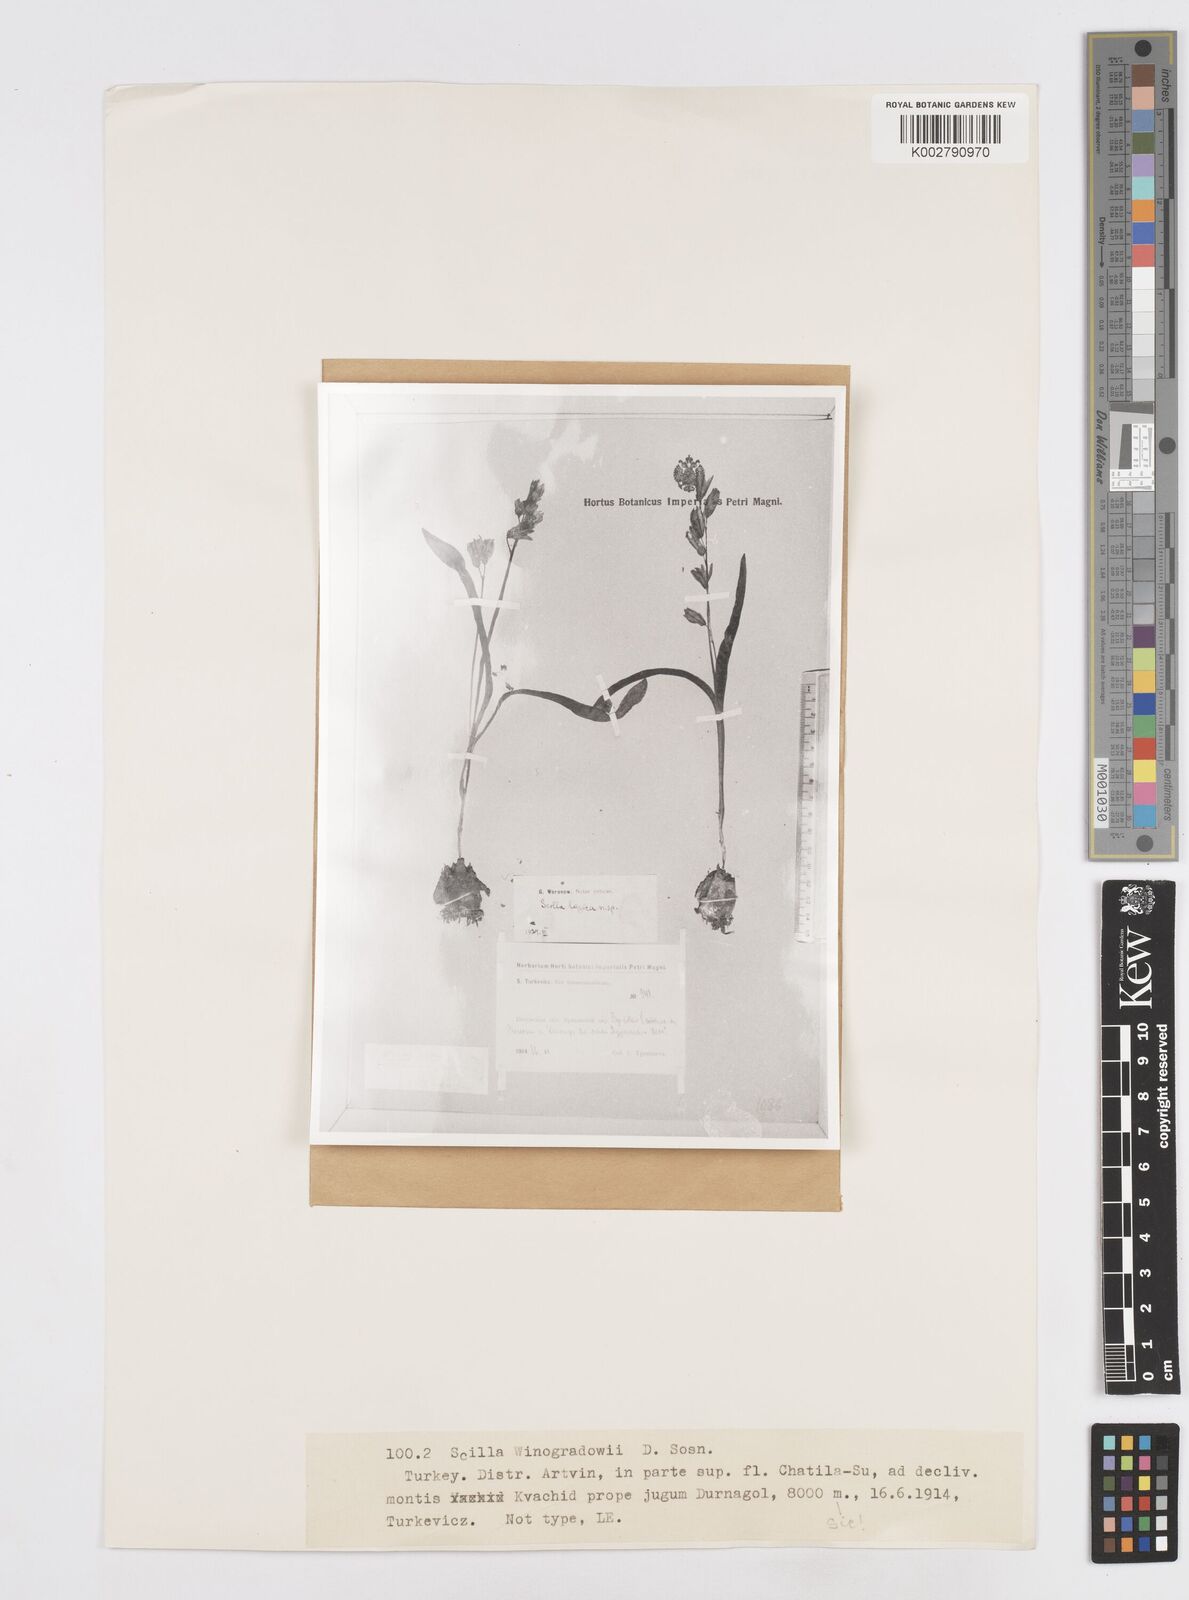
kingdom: Plantae
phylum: Tracheophyta
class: Liliopsida
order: Asparagales
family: Asparagaceae
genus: Scilla
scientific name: Scilla monanthos
